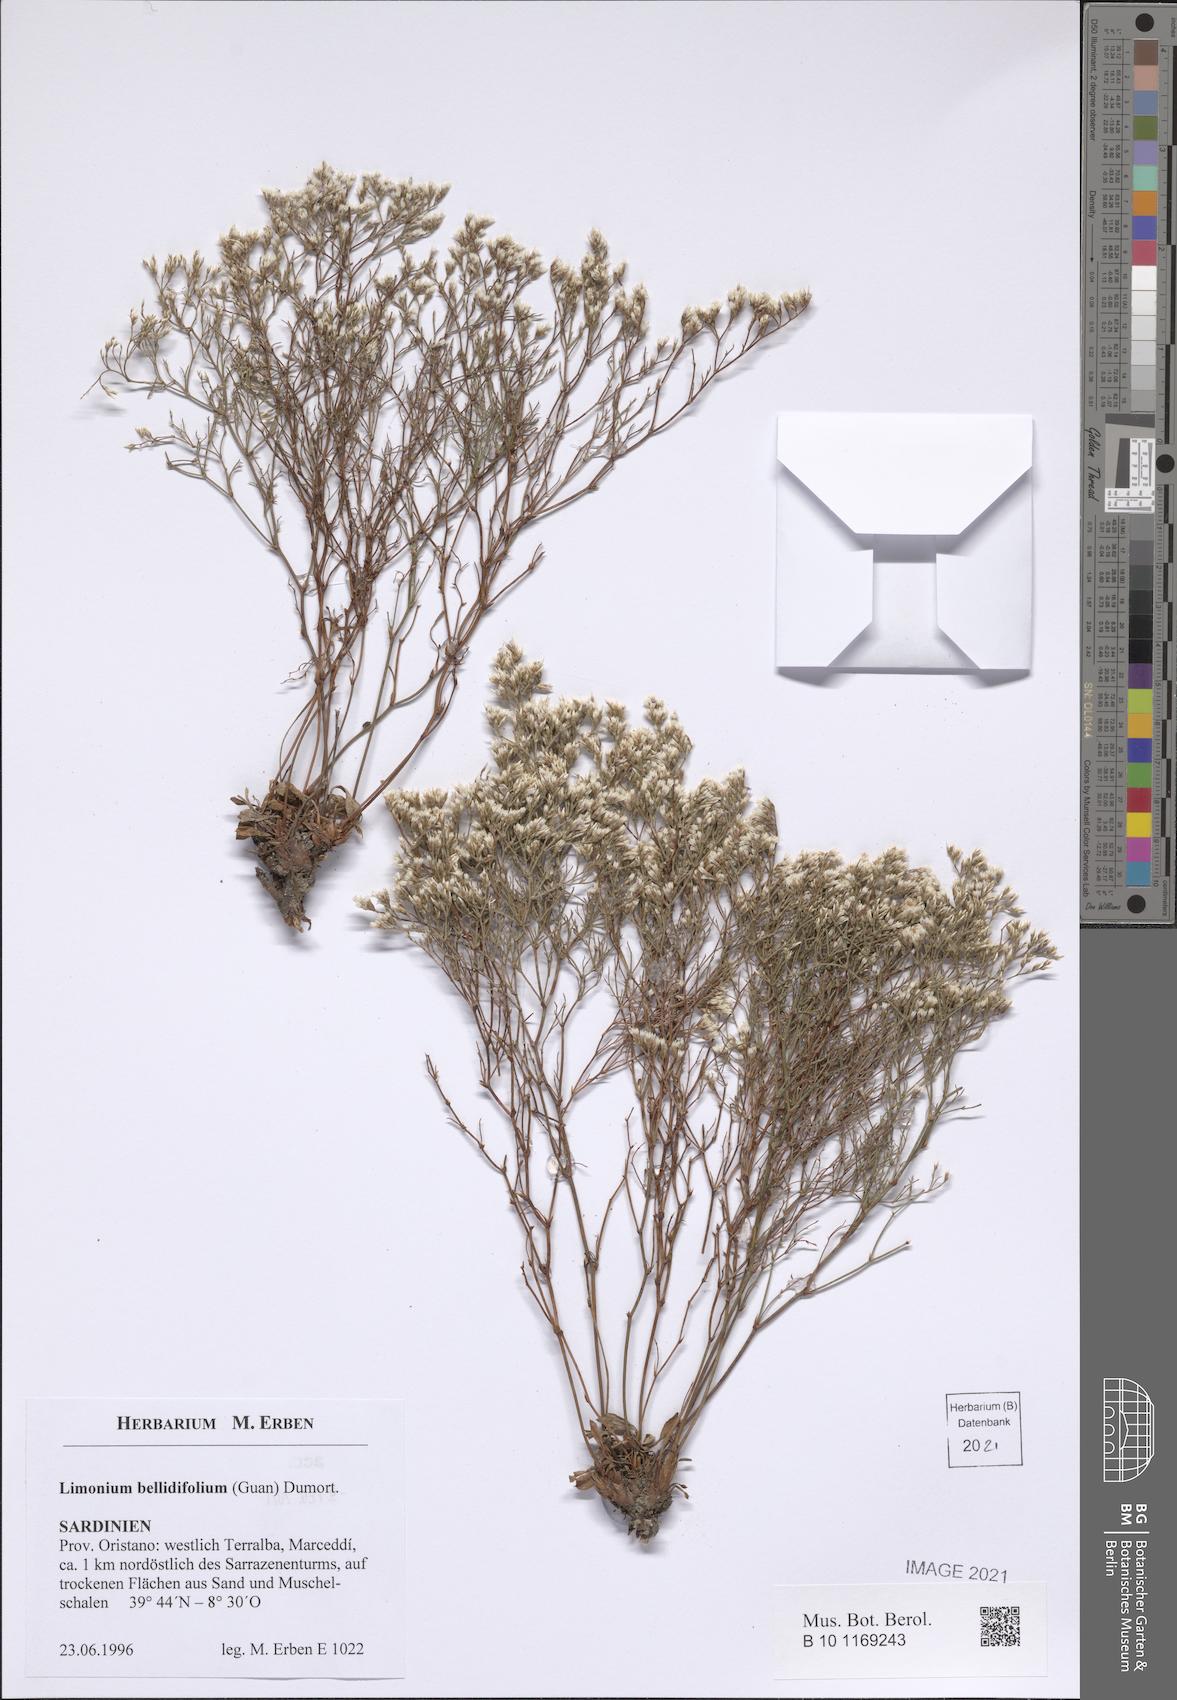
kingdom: Plantae
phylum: Tracheophyta
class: Magnoliopsida
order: Caryophyllales
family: Plumbaginaceae
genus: Limonium
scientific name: Limonium bellidifolium
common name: Matted sea-lavender
